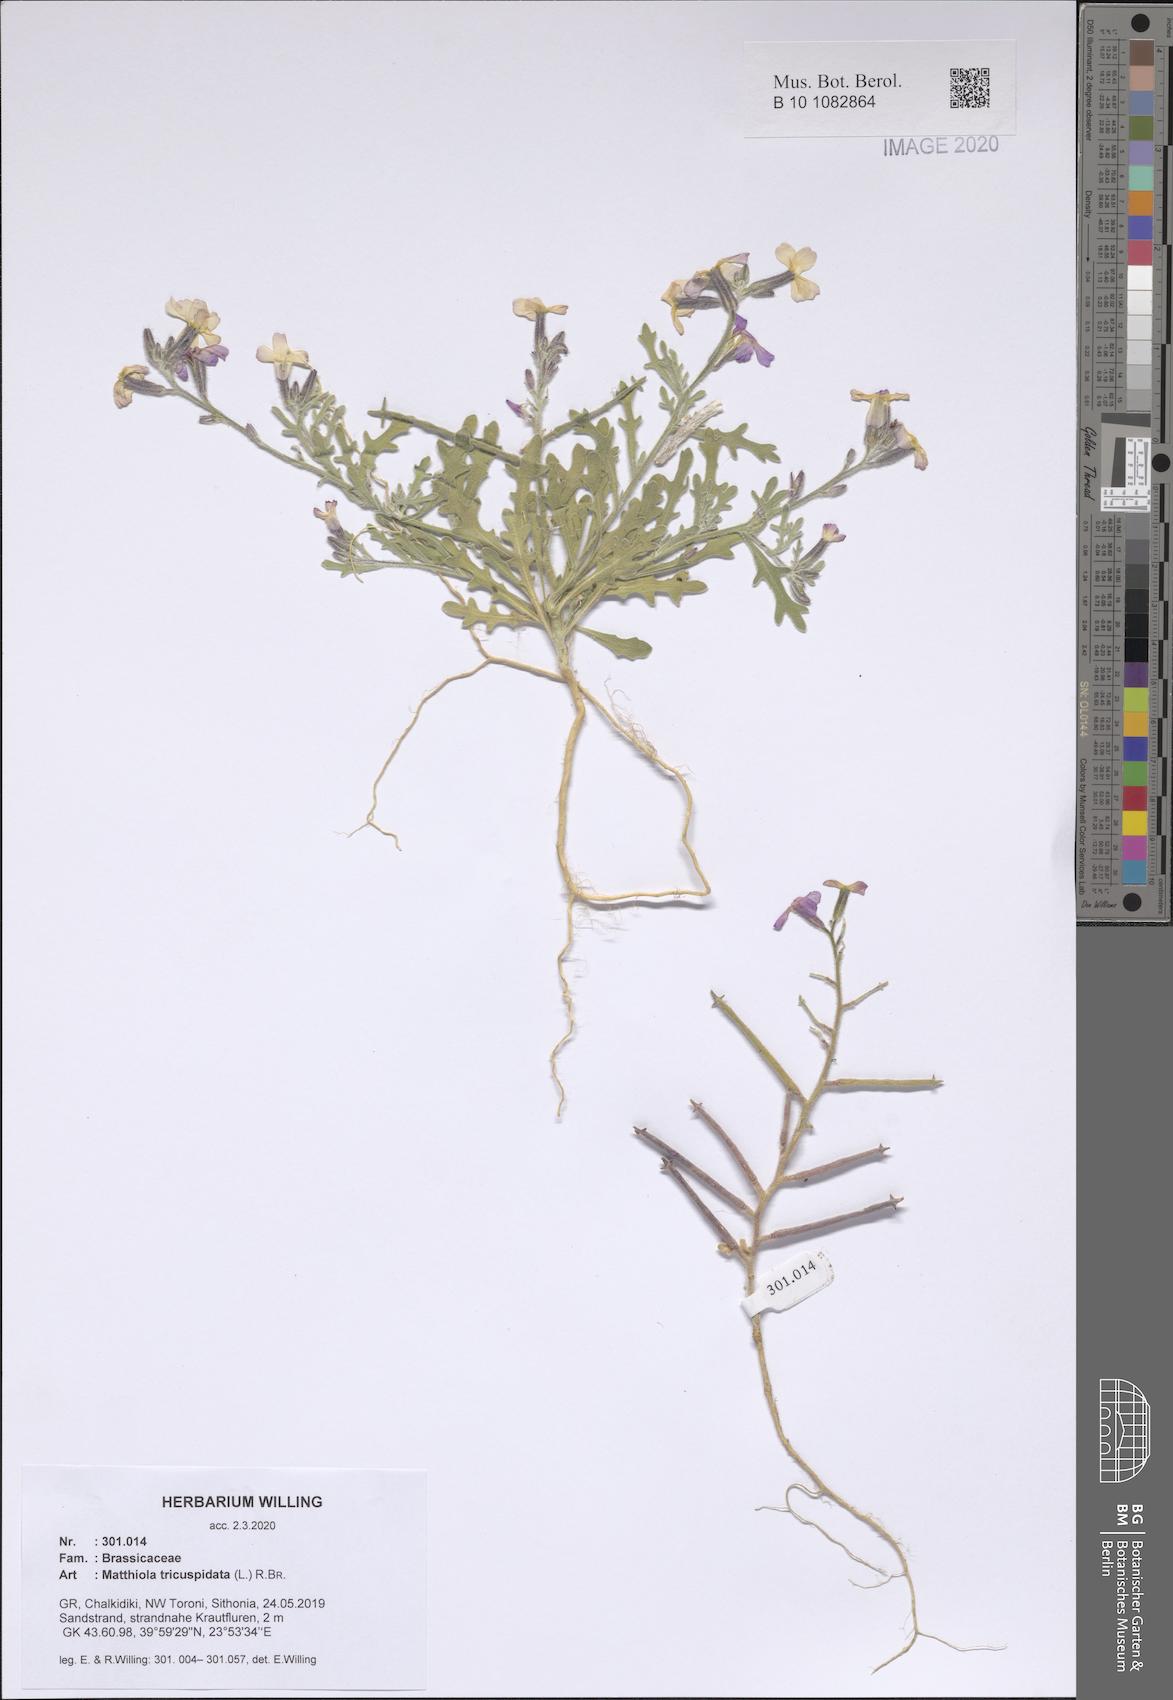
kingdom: Plantae
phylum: Tracheophyta
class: Magnoliopsida
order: Brassicales
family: Brassicaceae
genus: Matthiola
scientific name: Matthiola tricuspidata
